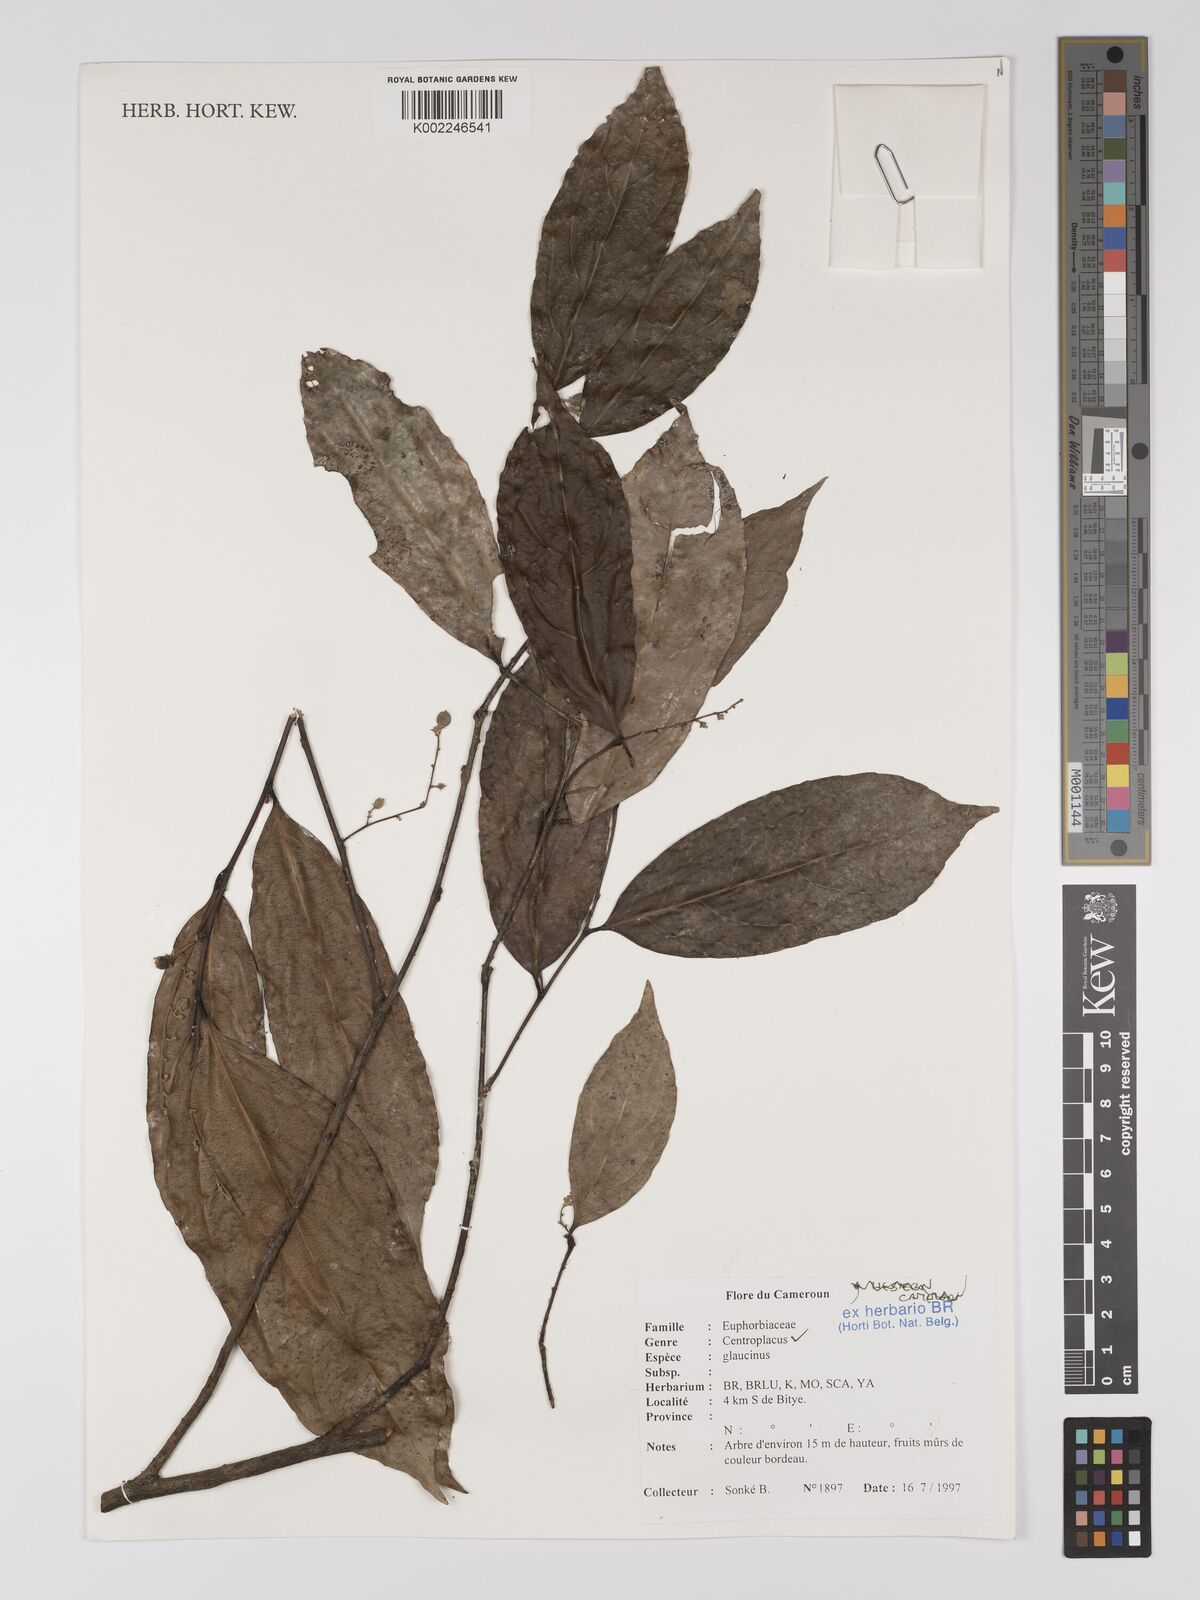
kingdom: Plantae
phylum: Tracheophyta
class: Magnoliopsida
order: Malpighiales
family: Centroplacaceae
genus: Centroplacus
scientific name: Centroplacus glaucinus
